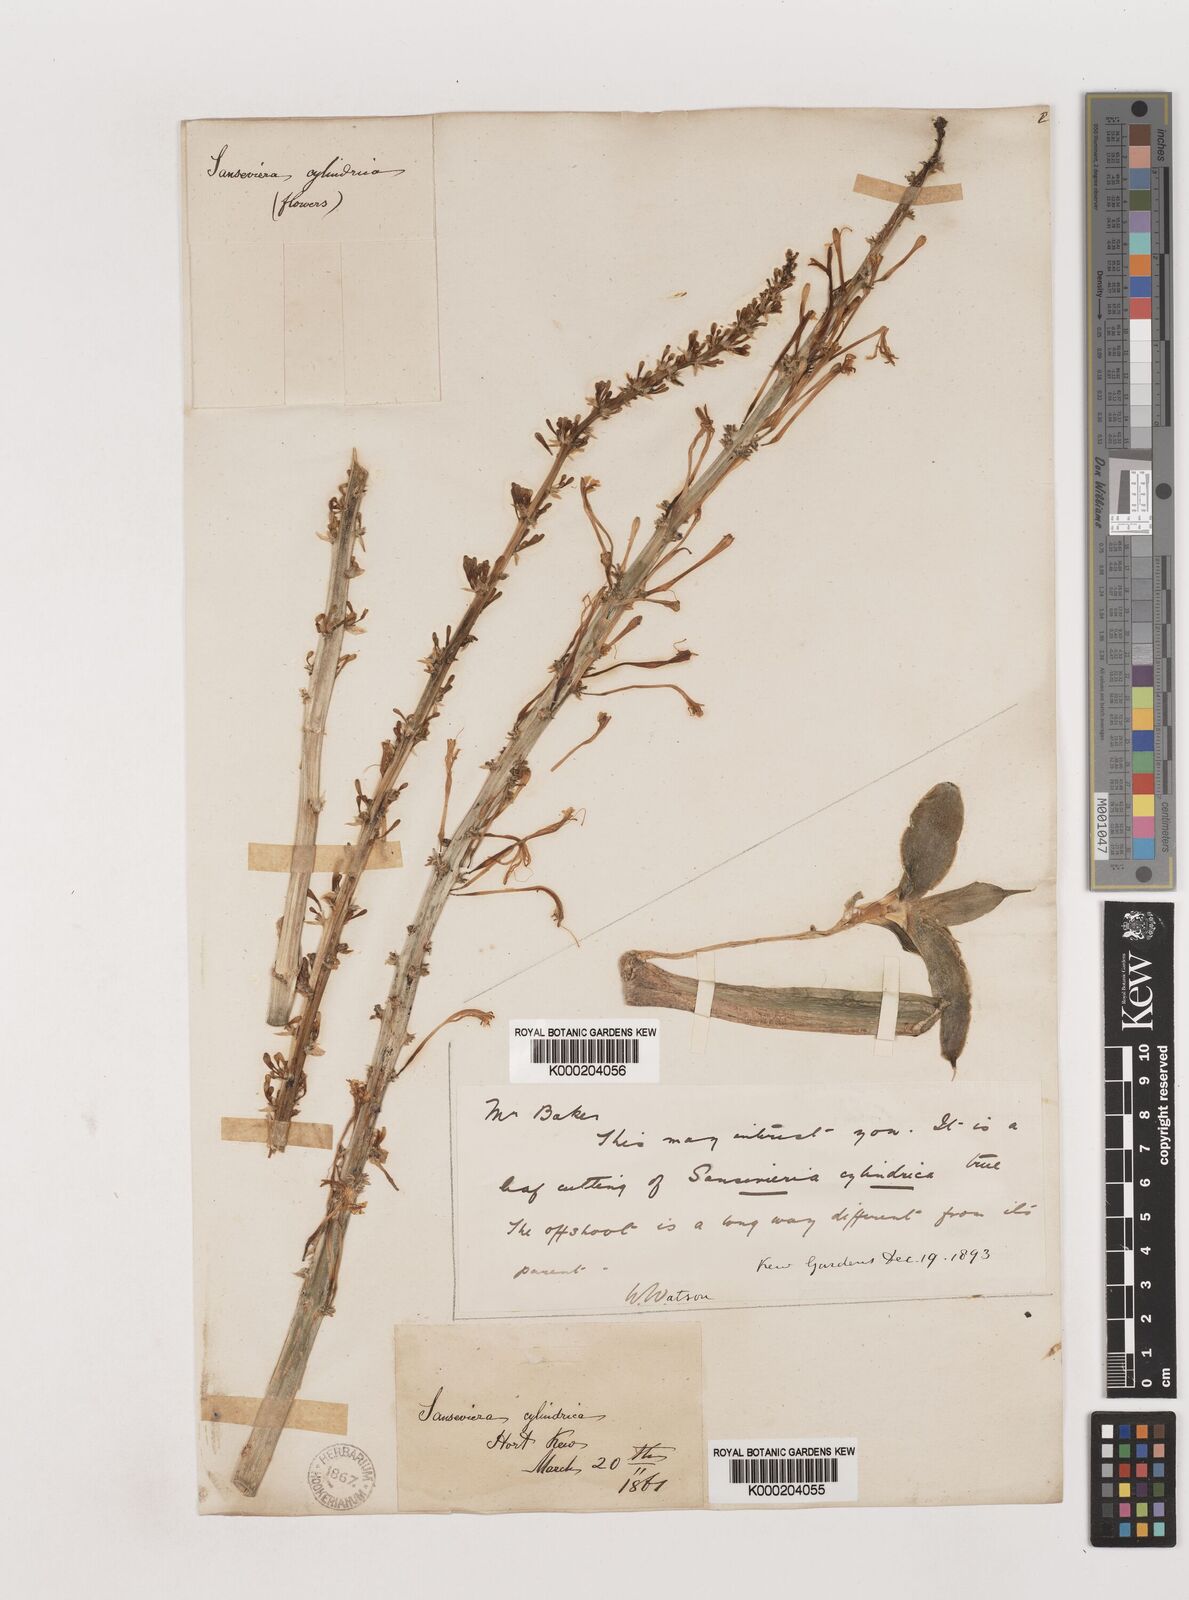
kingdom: Plantae
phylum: Tracheophyta
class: Liliopsida
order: Asparagales
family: Asparagaceae
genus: Dracaena
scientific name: Dracaena angolensis
